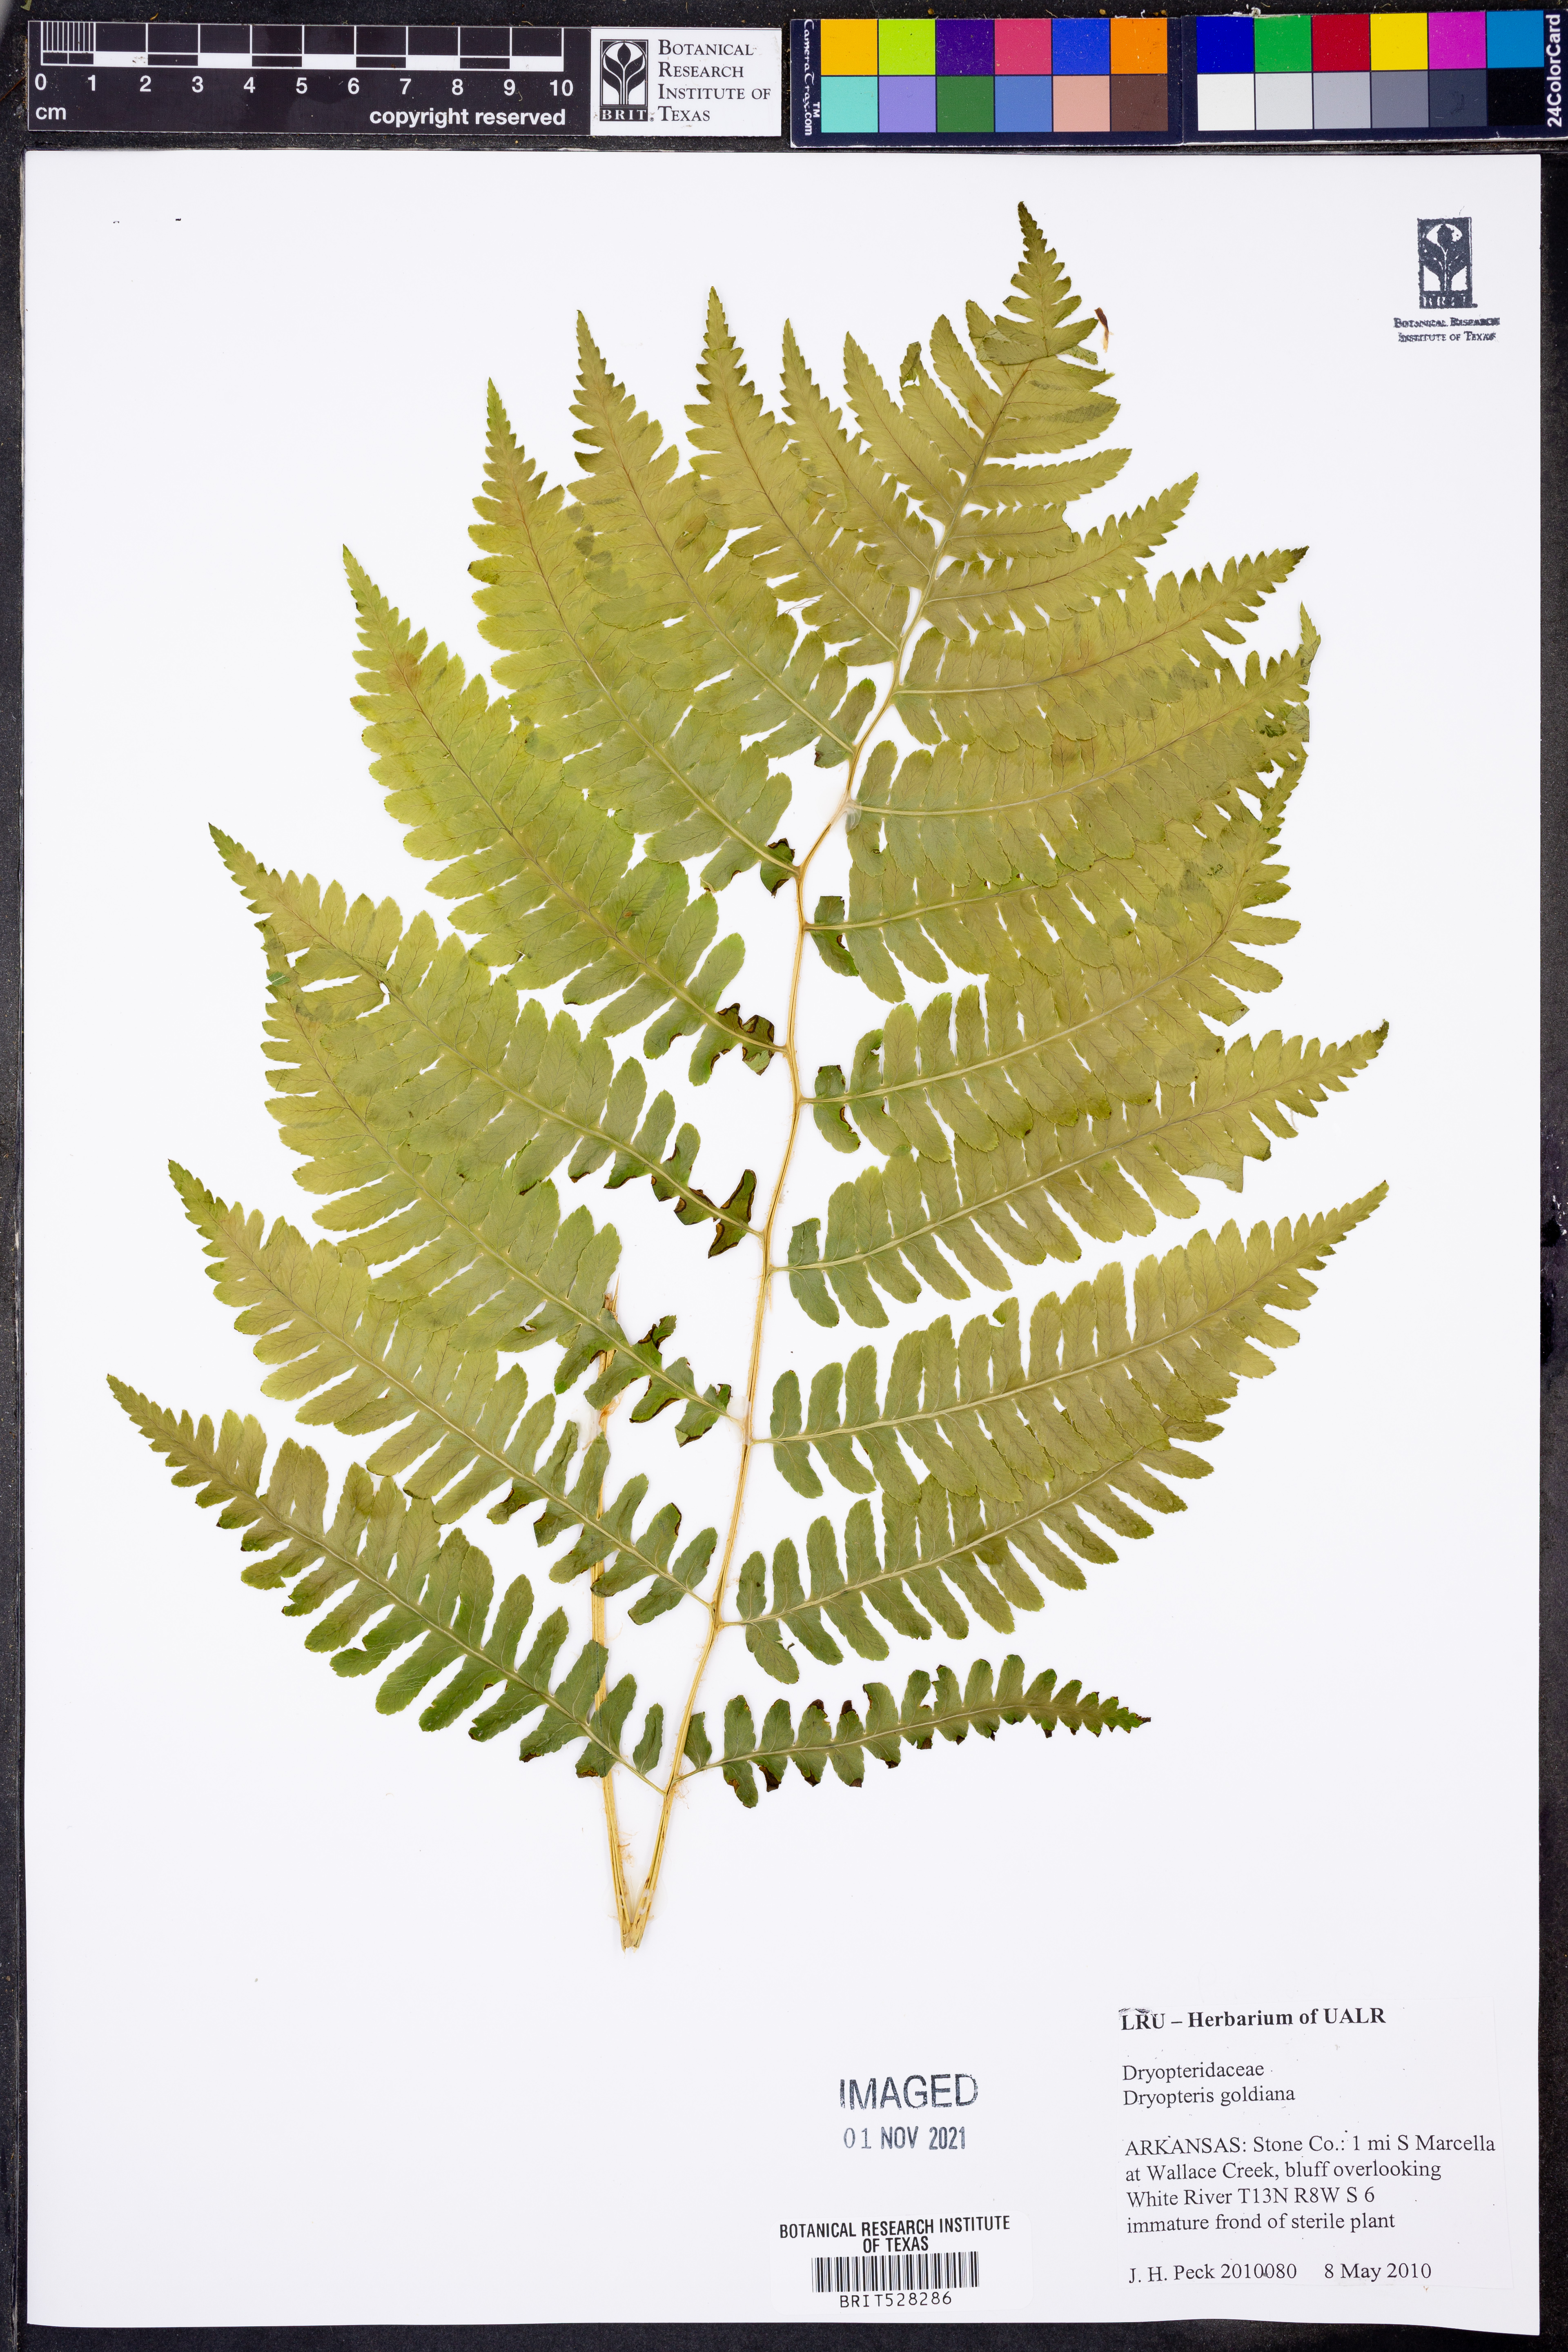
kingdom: Plantae
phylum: Tracheophyta
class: Polypodiopsida
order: Polypodiales
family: Dryopteridaceae
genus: Dryopteris
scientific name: Dryopteris goeldiana
